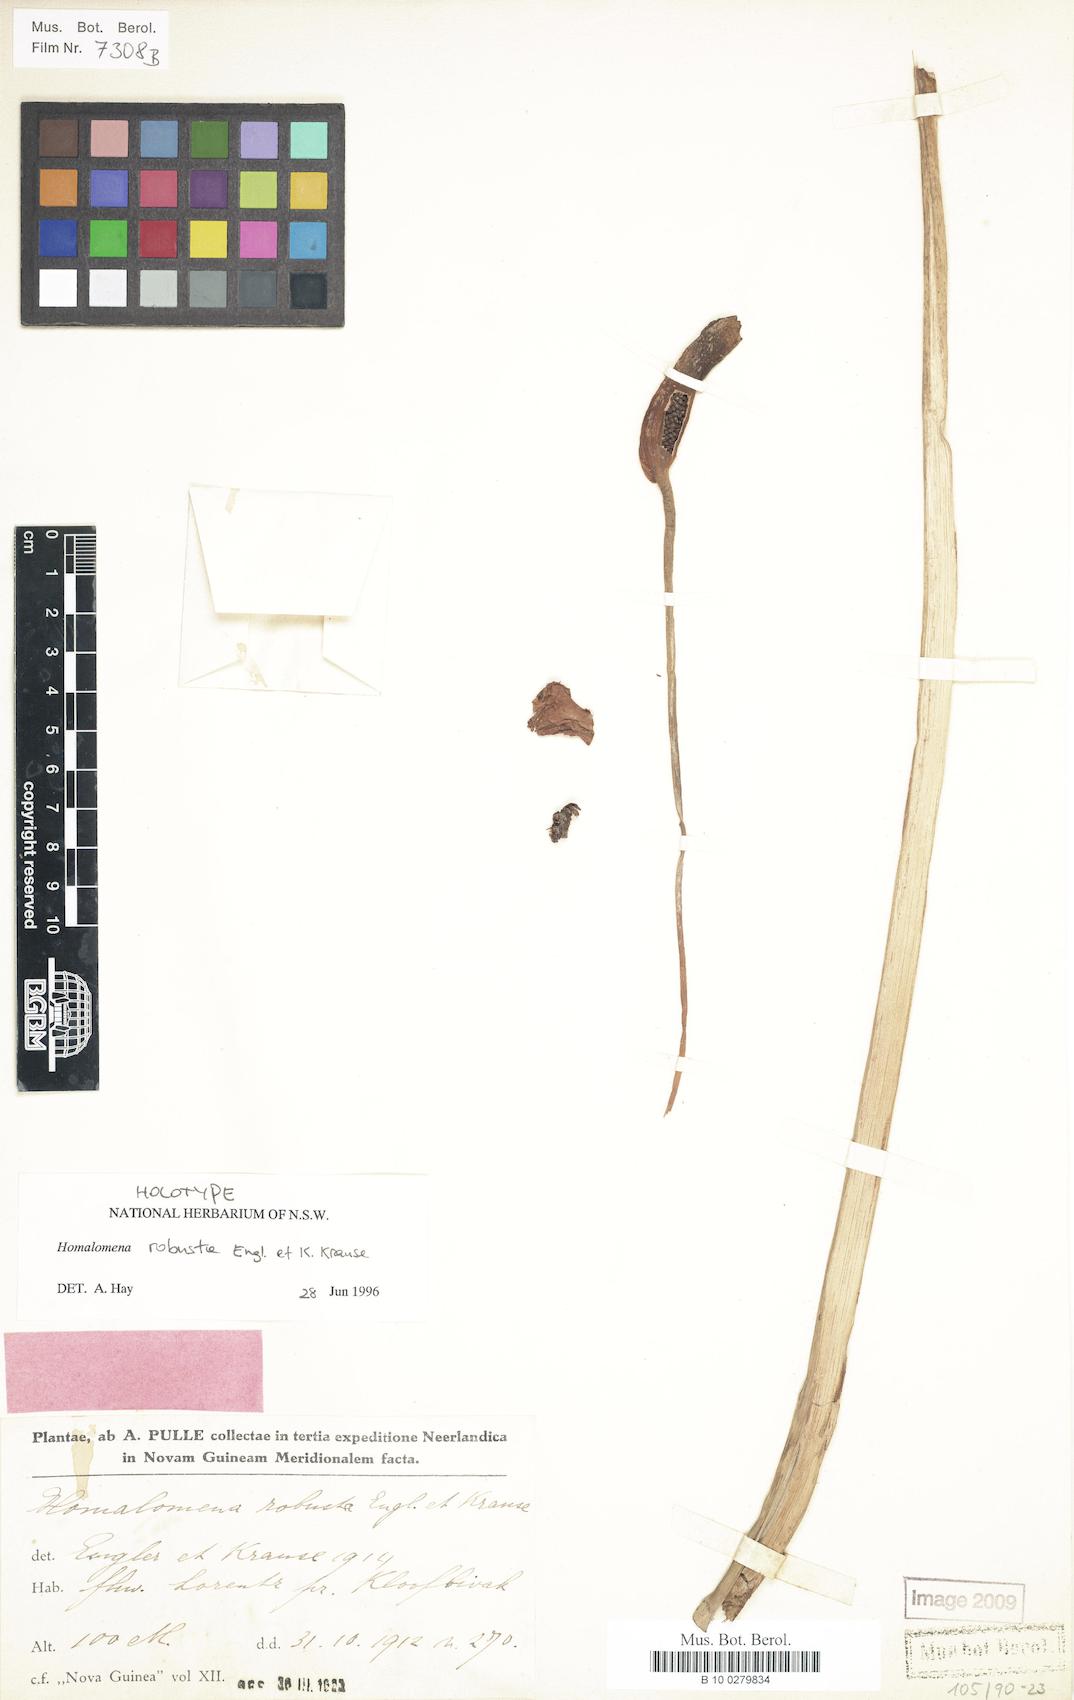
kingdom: Plantae
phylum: Tracheophyta
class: Liliopsida
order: Alismatales
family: Araceae
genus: Homalomena
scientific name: Homalomena robusta
